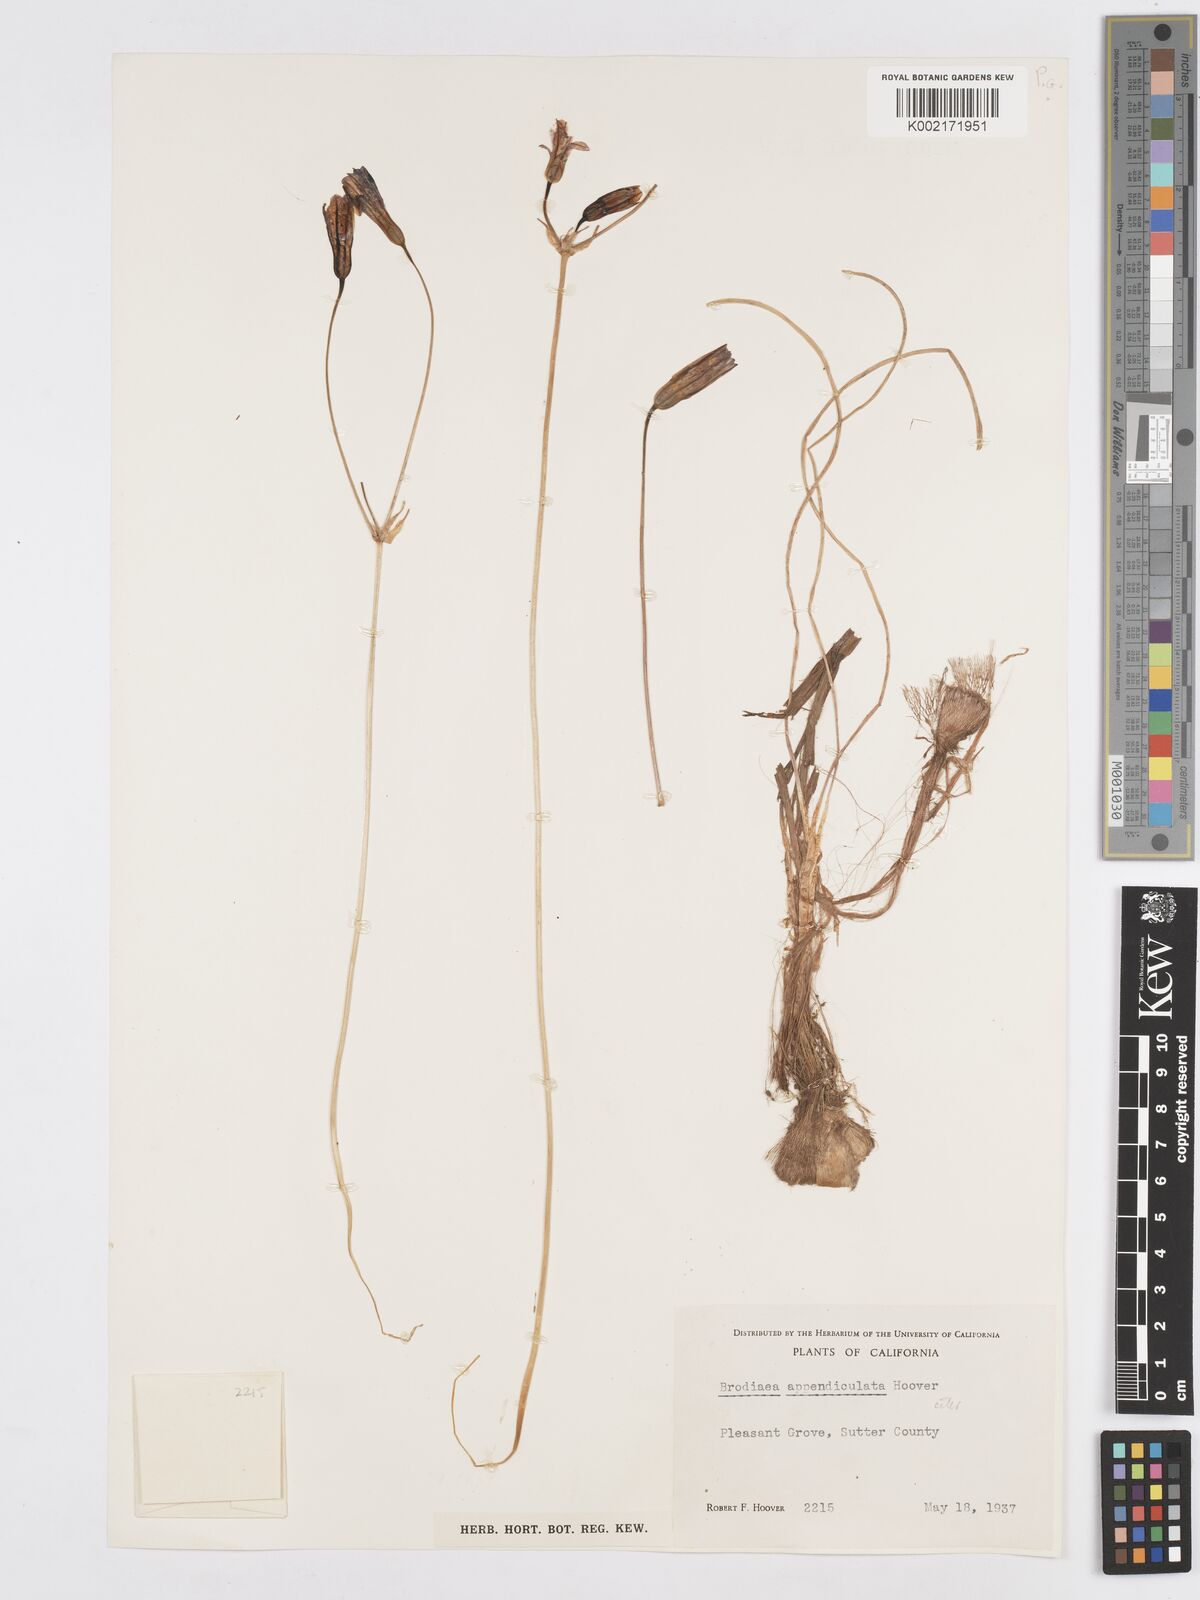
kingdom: Plantae
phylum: Tracheophyta
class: Liliopsida
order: Asparagales
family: Asparagaceae
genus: Brodiaea
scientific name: Brodiaea appendiculata
